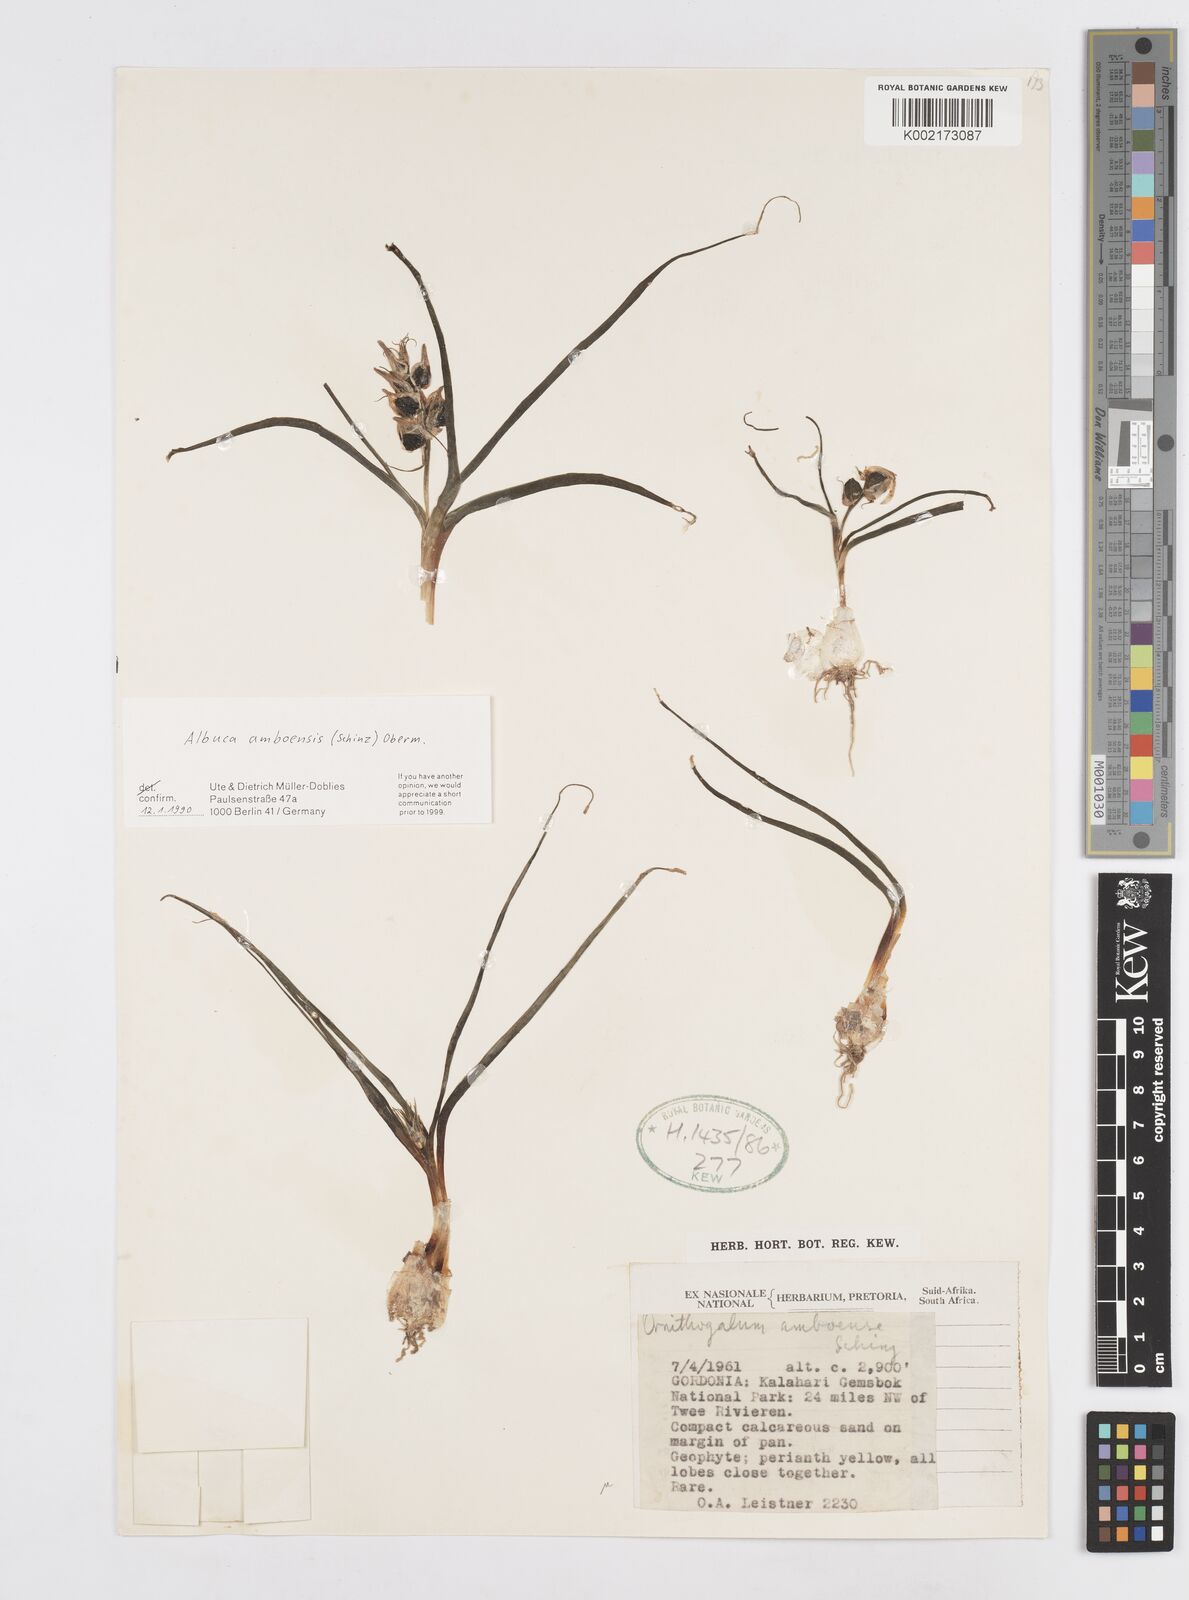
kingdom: Plantae
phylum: Tracheophyta
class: Liliopsida
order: Asparagales
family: Asparagaceae
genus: Albuca
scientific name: Albuca amboensis
